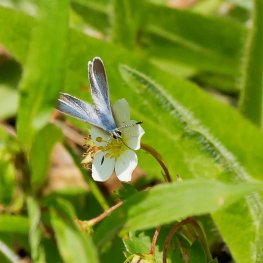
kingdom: Animalia
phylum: Arthropoda
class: Insecta
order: Lepidoptera
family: Lycaenidae
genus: Glaucopsyche
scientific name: Glaucopsyche lygdamus
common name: Silvery Blue
